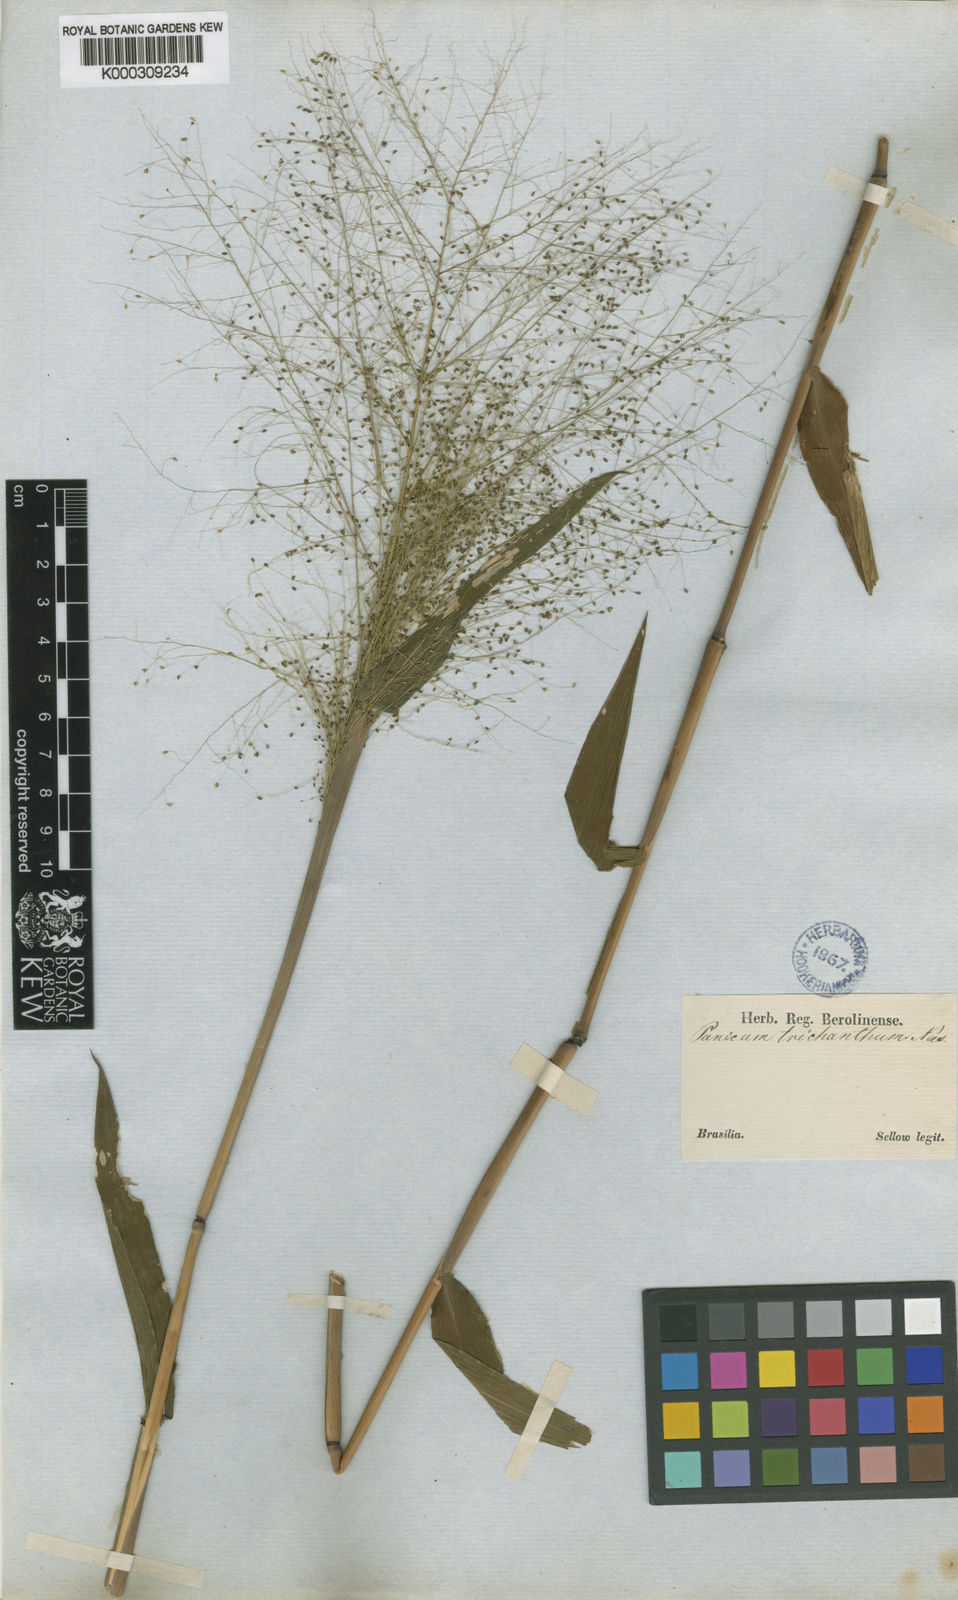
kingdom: Plantae
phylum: Tracheophyta
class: Liliopsida
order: Poales
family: Poaceae
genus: Panicum
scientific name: Panicum trichanthum
